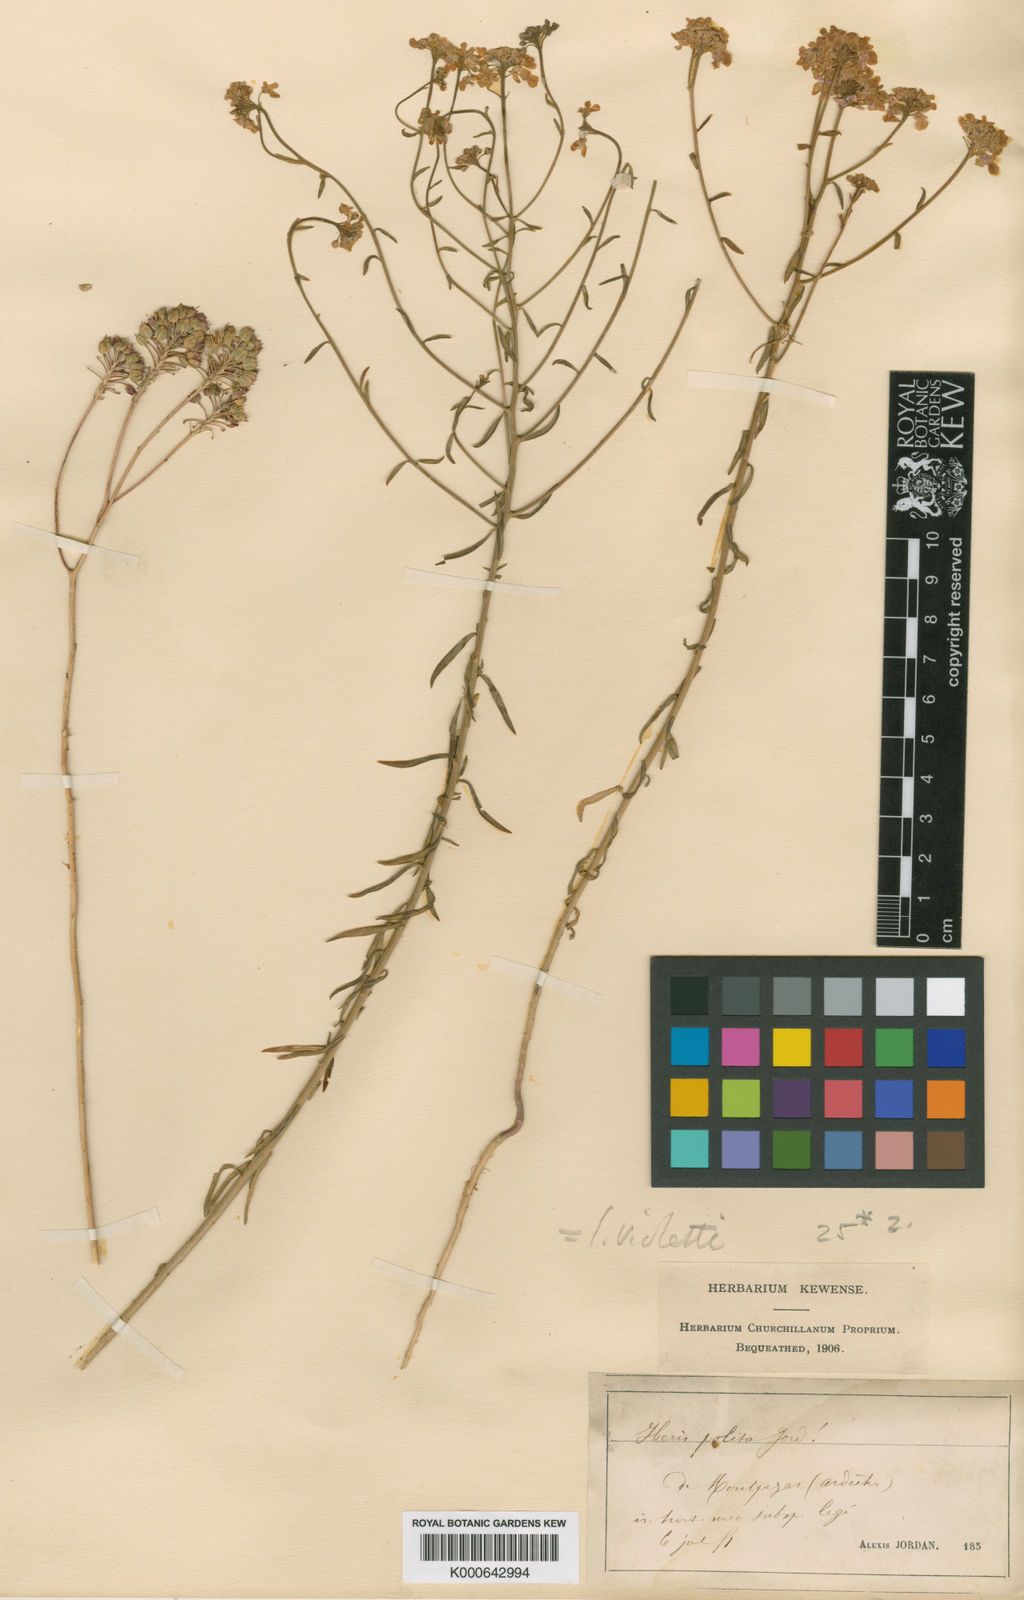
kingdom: Plantae
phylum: Tracheophyta
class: Magnoliopsida
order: Brassicales
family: Brassicaceae
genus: Iberis
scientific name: Iberis linifolia
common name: Candytuft
